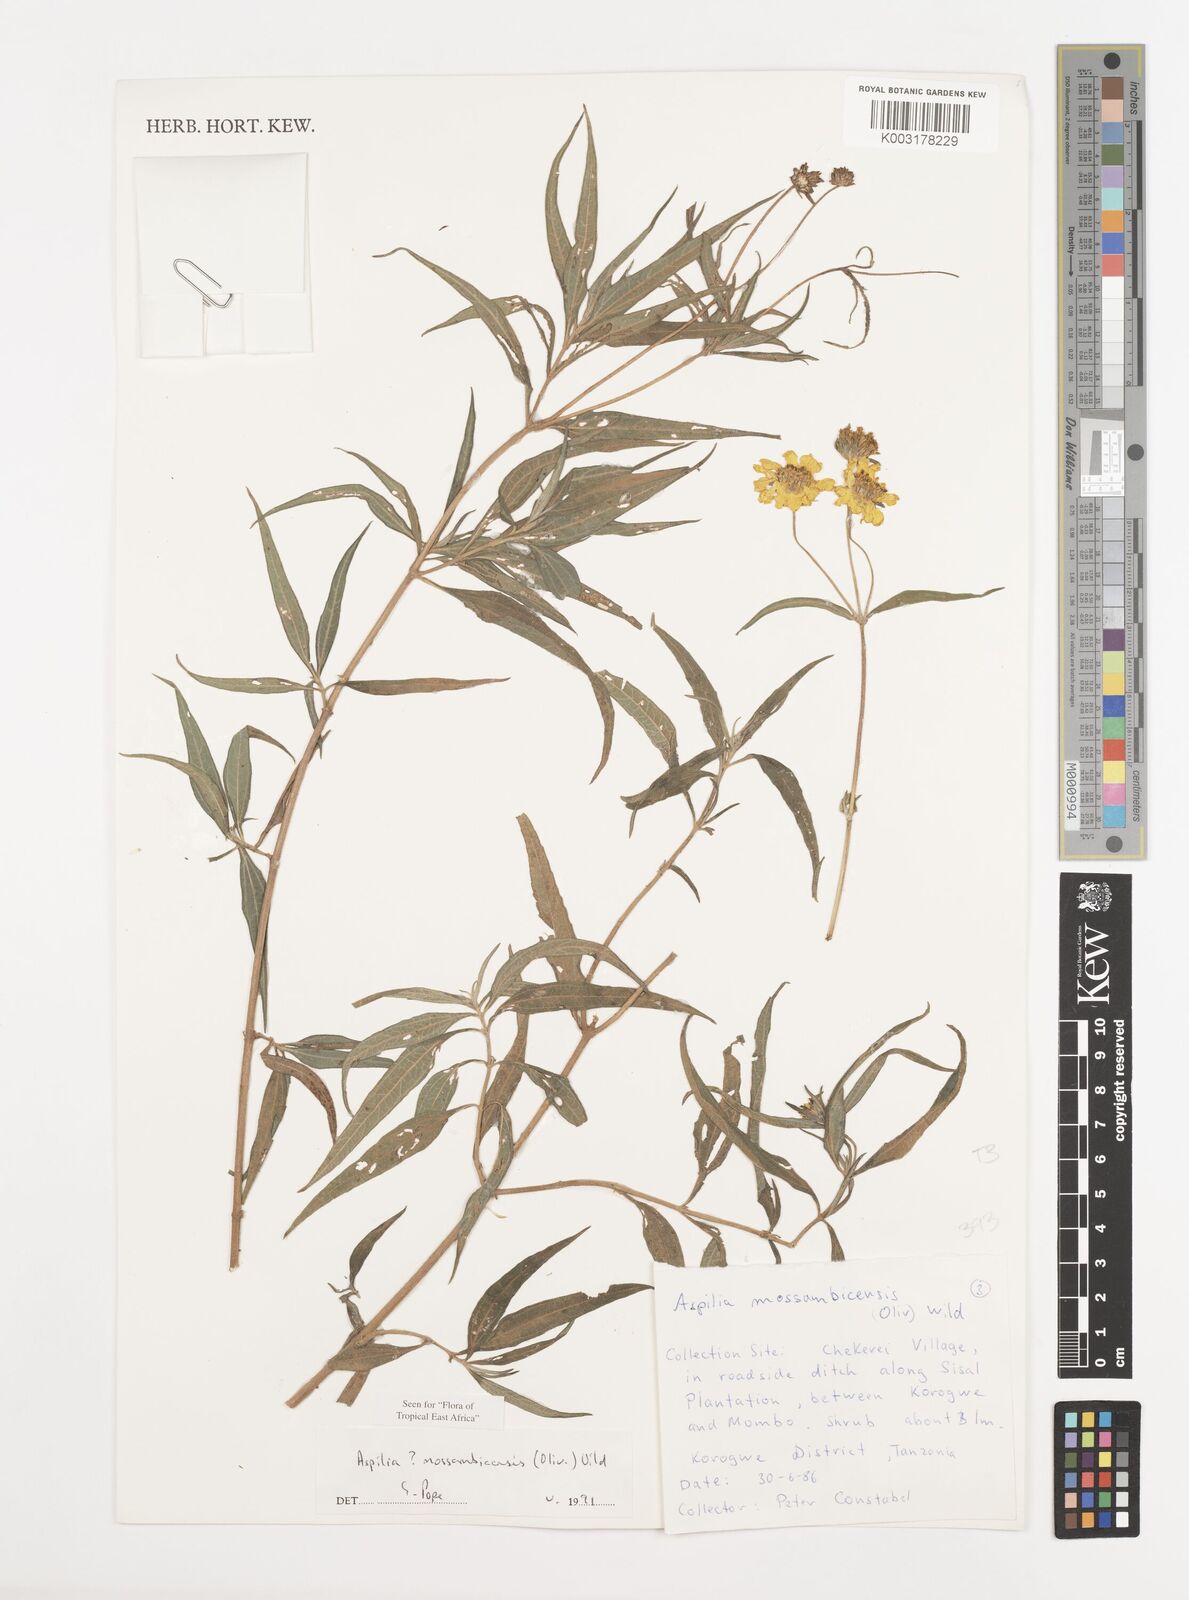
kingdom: Plantae
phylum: Tracheophyta
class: Magnoliopsida
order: Asterales
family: Asteraceae
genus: Aspilia
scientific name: Aspilia mossambicensis
